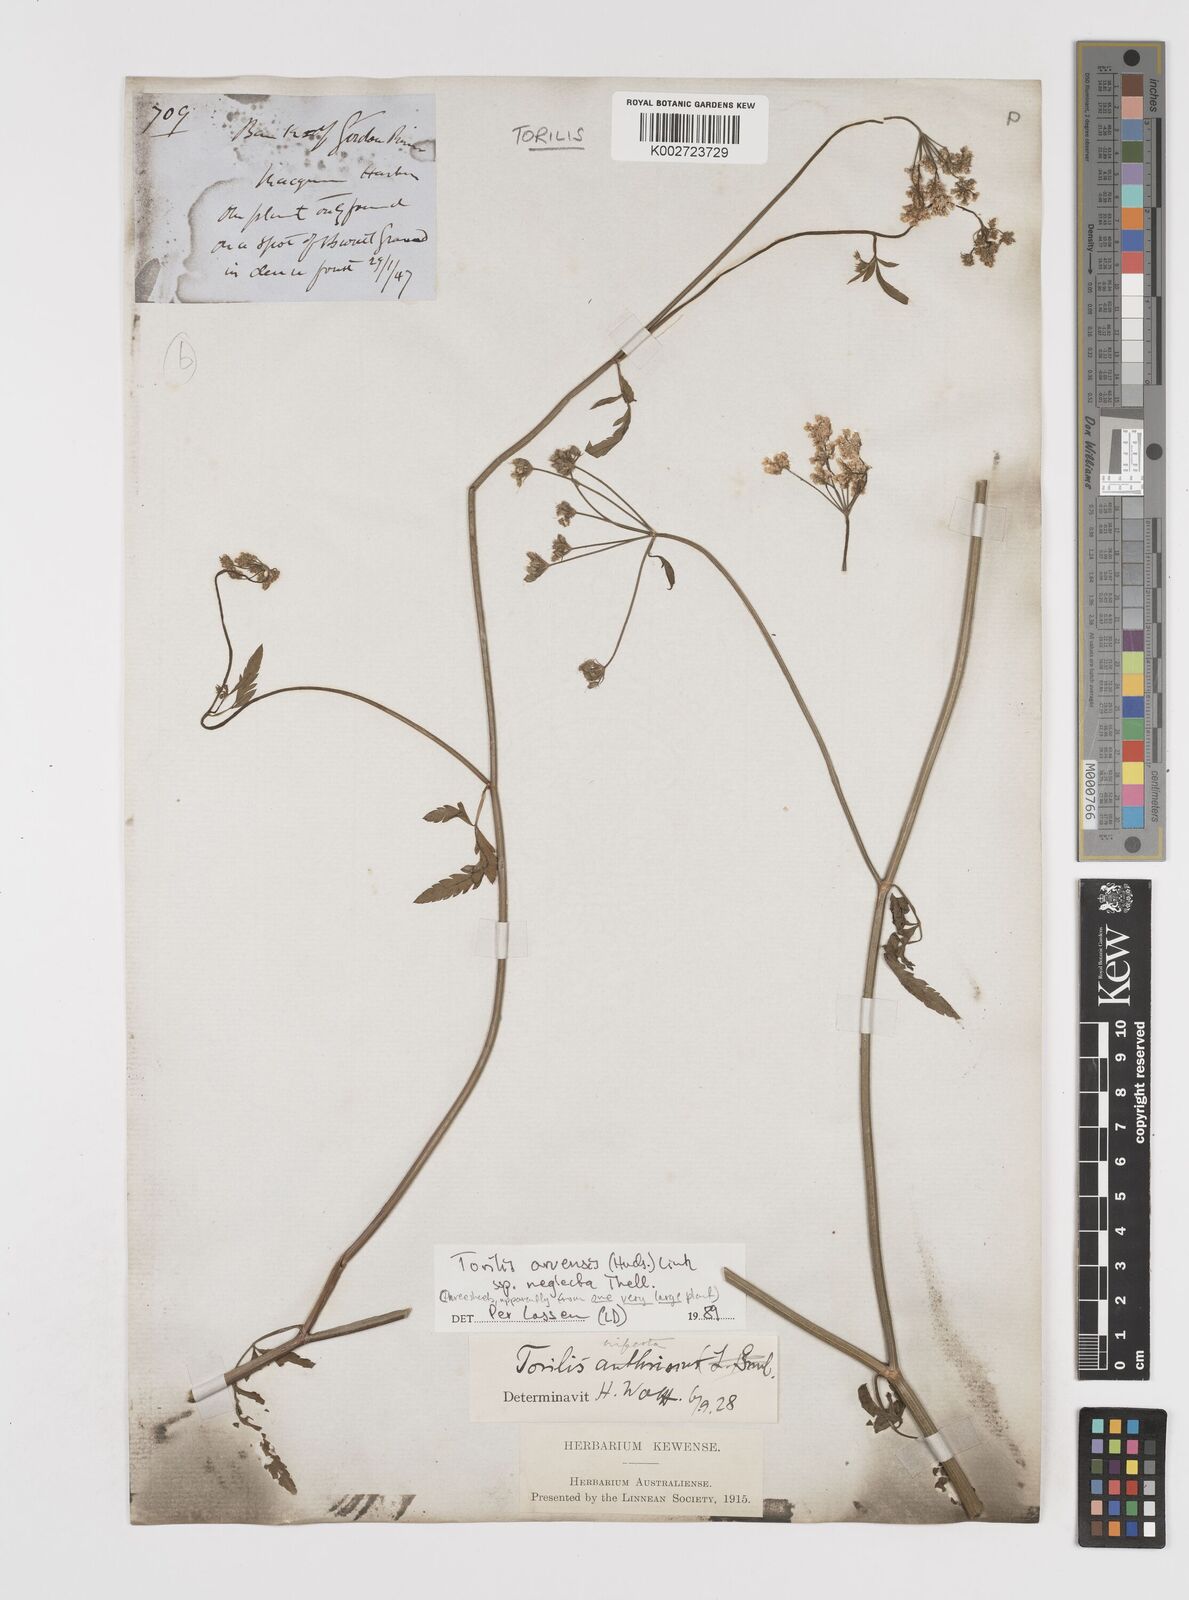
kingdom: Plantae
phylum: Tracheophyta
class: Magnoliopsida
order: Apiales
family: Apiaceae
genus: Torilis
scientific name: Torilis arvensis
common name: Spreading hedge-parsley
